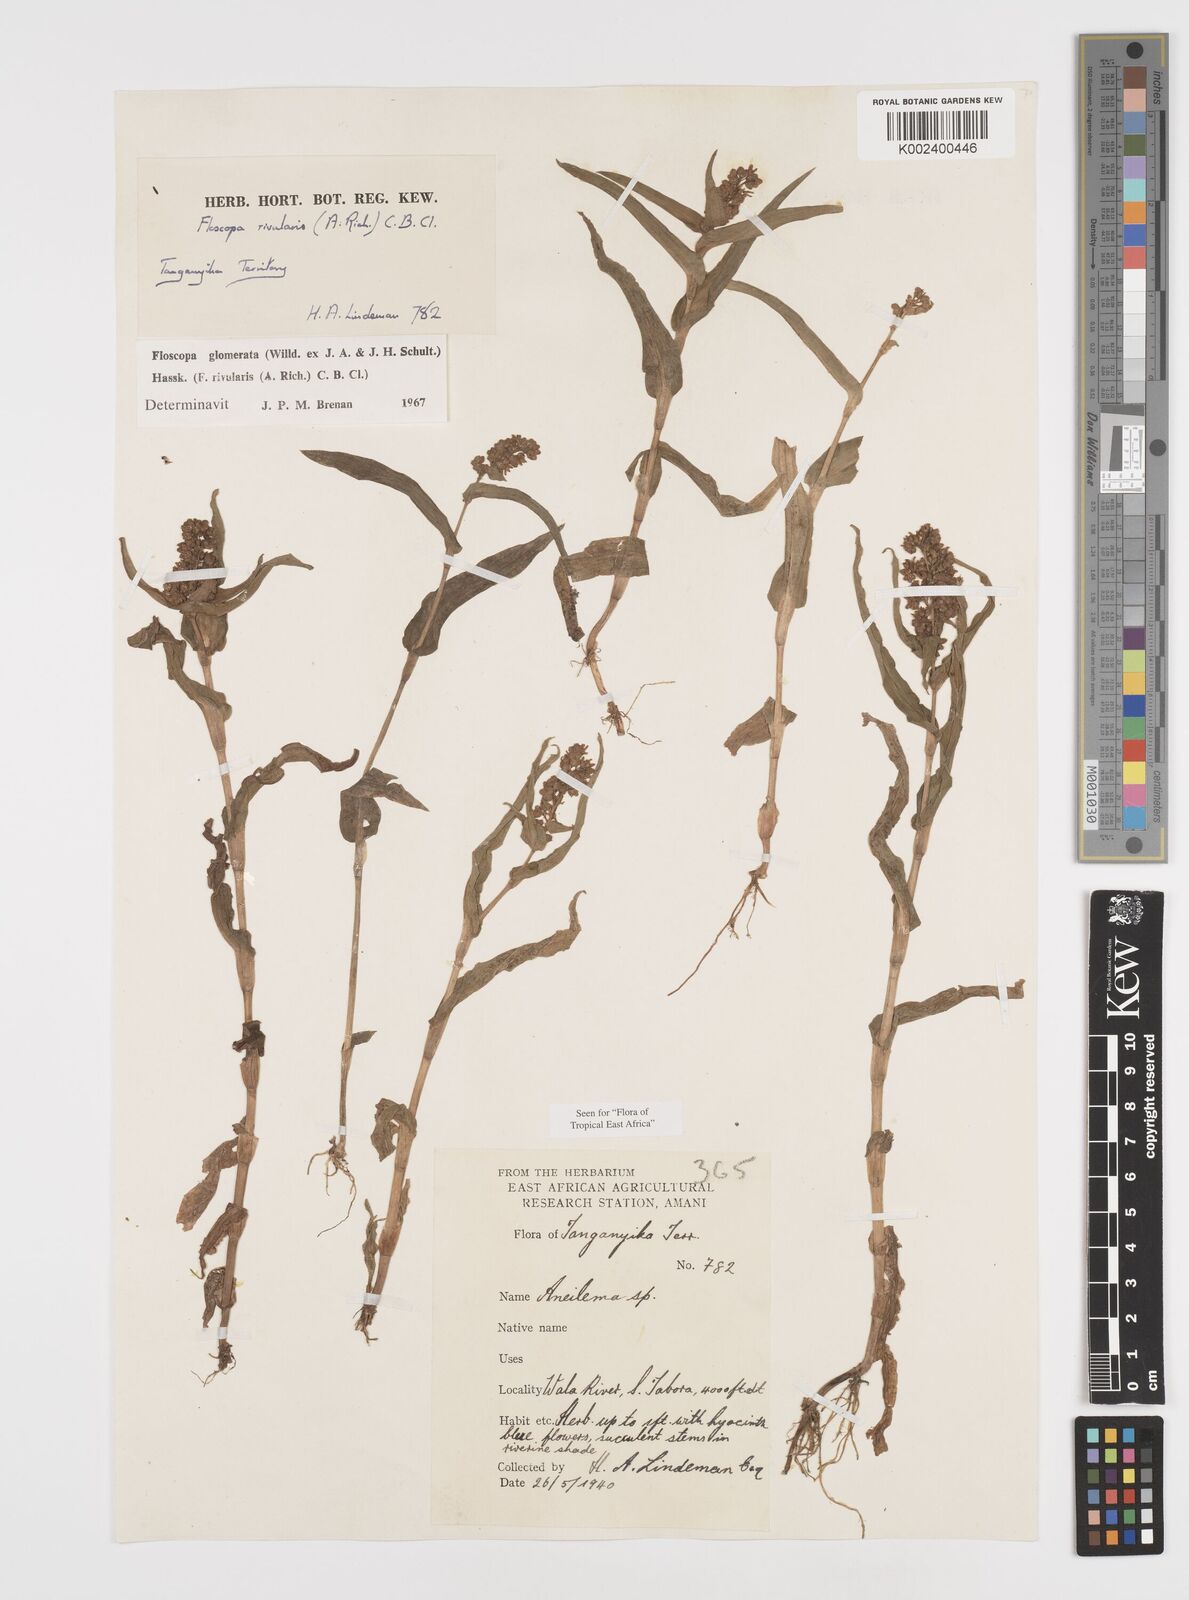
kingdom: Plantae
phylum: Tracheophyta
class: Liliopsida
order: Commelinales
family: Commelinaceae
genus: Floscopa
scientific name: Floscopa glomerata
